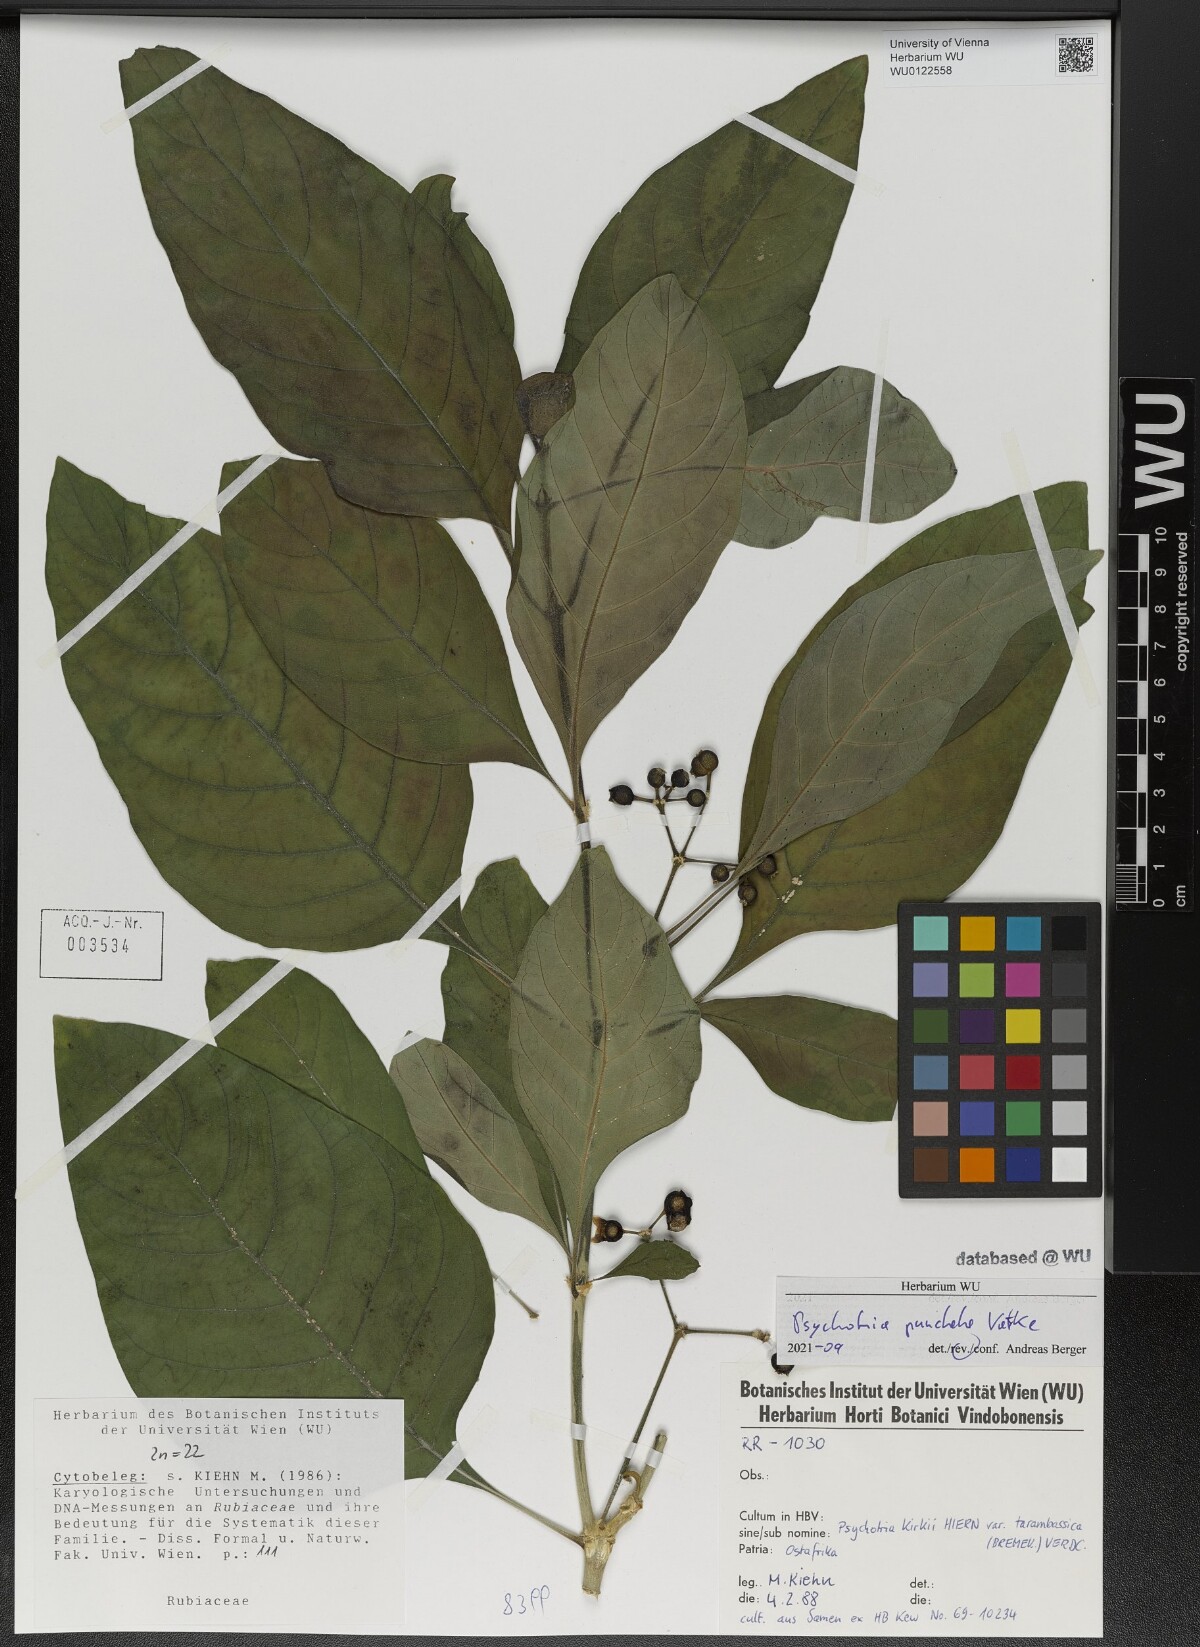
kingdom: Plantae
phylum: Tracheophyta
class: Magnoliopsida
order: Gentianales
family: Rubiaceae
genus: Psychotria
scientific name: Psychotria punctata
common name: Dotted wild coffee
